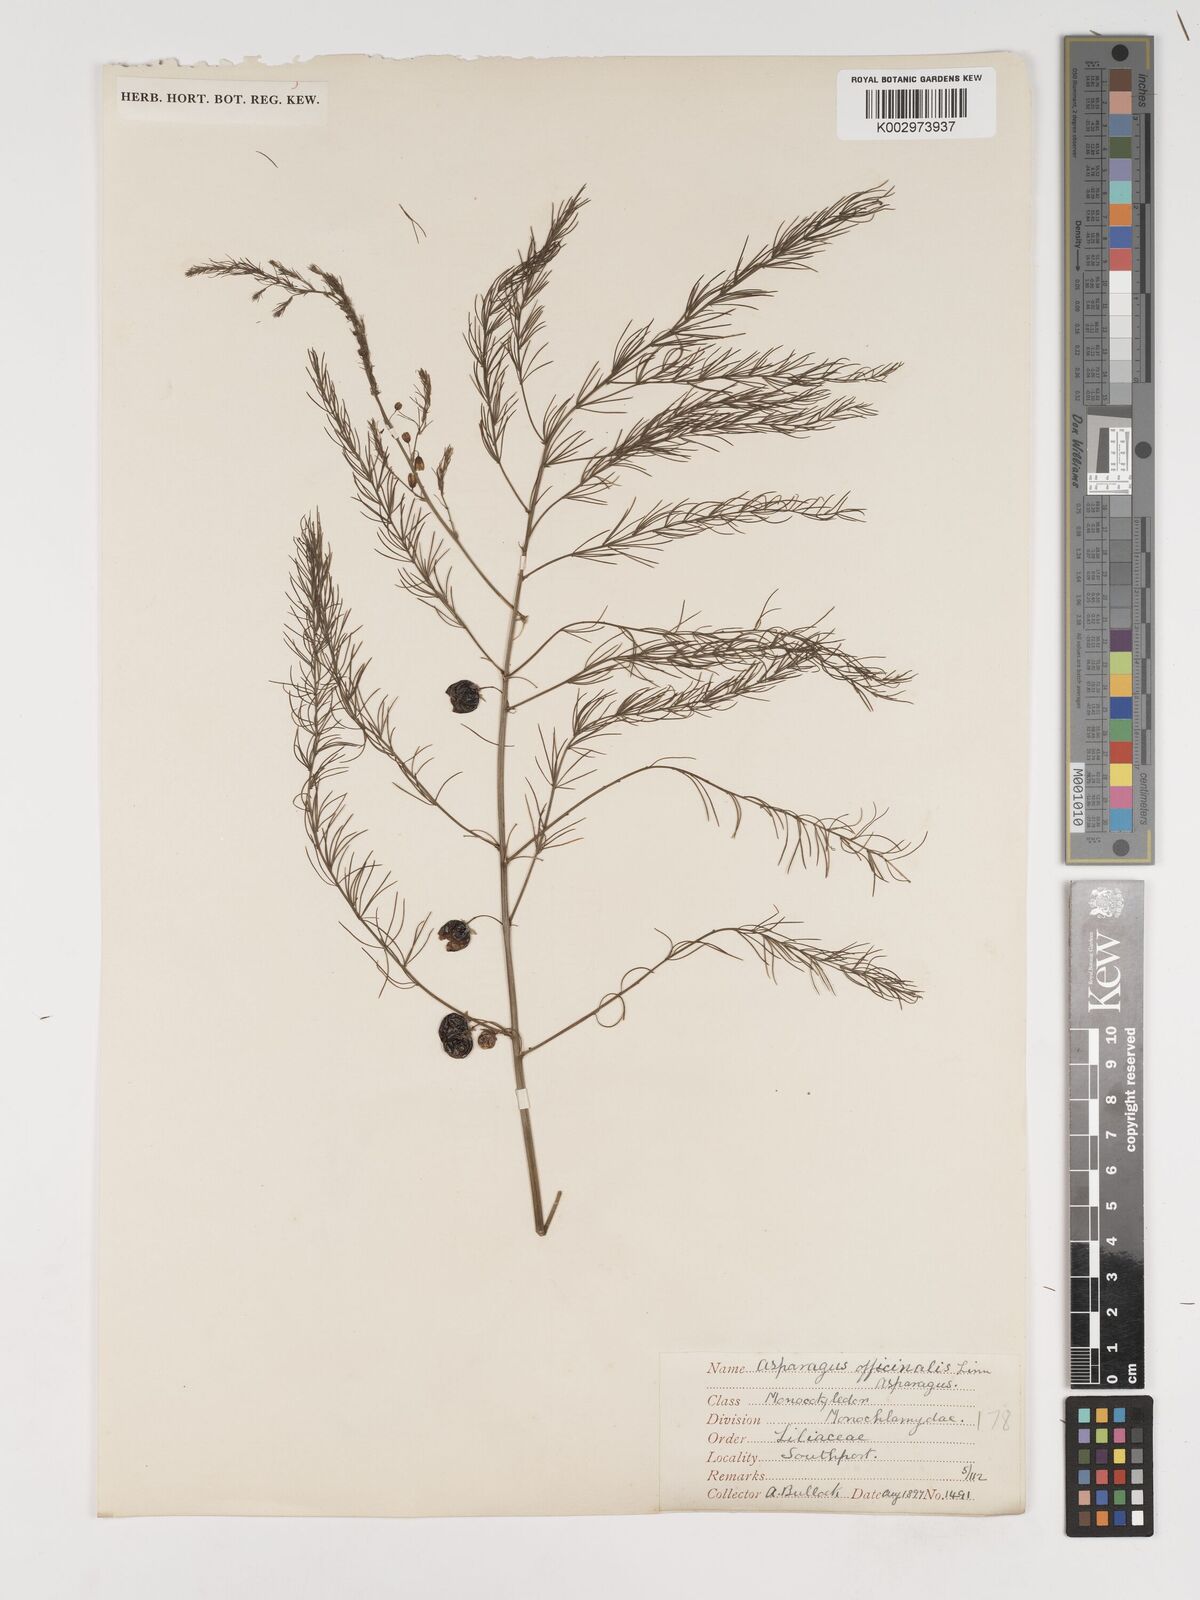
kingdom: Plantae
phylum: Tracheophyta
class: Liliopsida
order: Asparagales
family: Asparagaceae
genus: Asparagus
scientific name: Asparagus officinalis
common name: Garden asparagus
